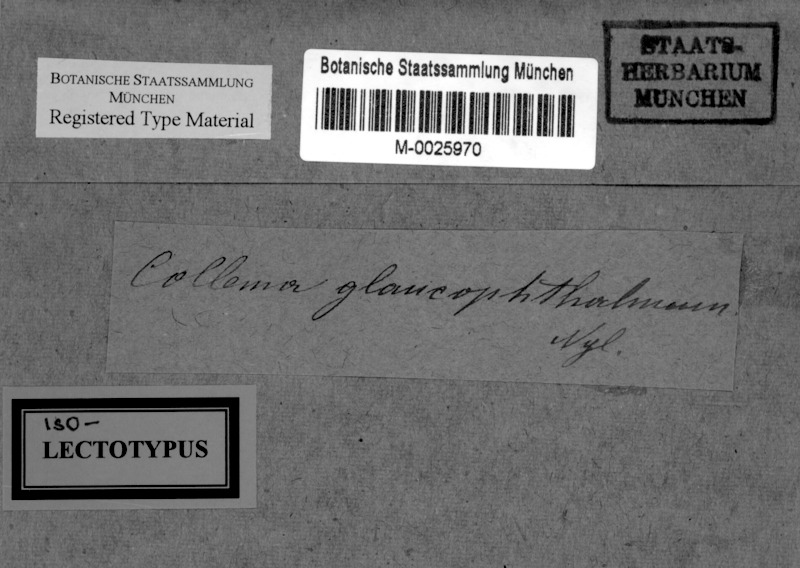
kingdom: Fungi
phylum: Ascomycota
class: Lecanoromycetes
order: Peltigerales
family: Collemataceae
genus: Collema
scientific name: Collema glaucophthalmum
